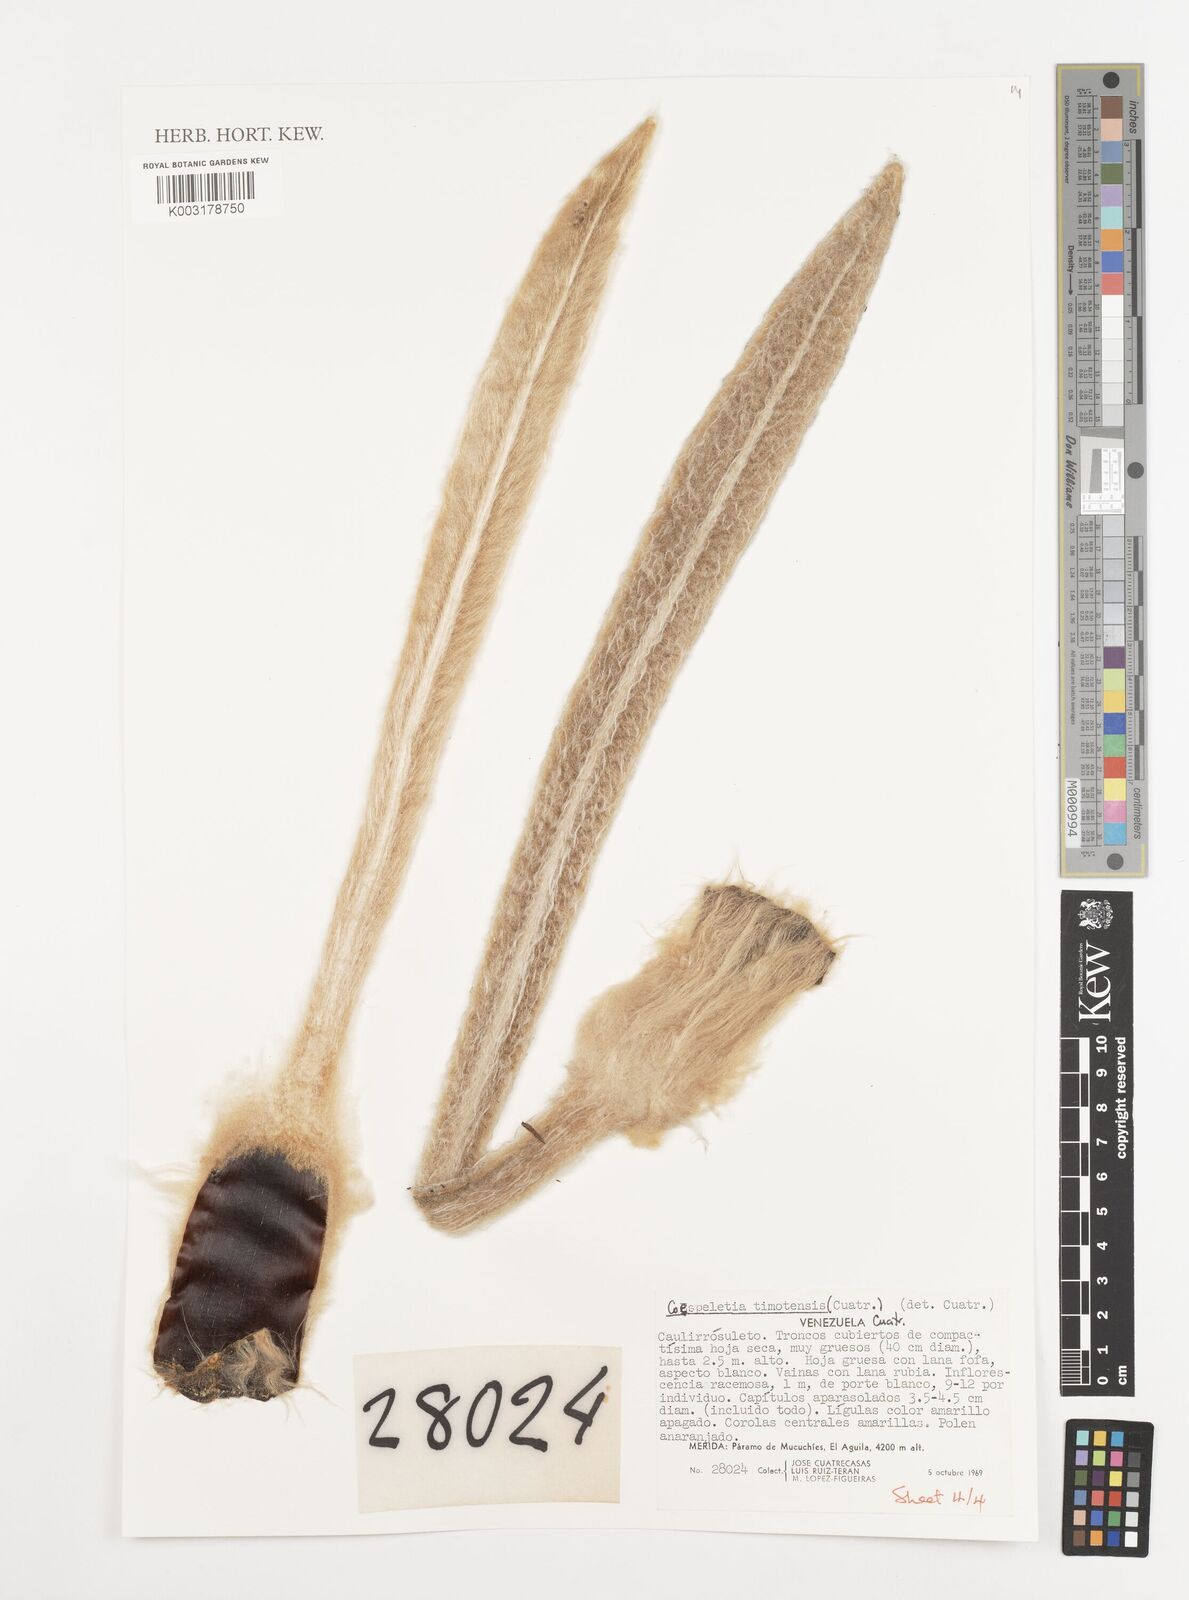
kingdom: Plantae
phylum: Tracheophyta
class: Magnoliopsida
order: Asterales
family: Asteraceae
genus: Espeletia
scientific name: Espeletia timotensis
